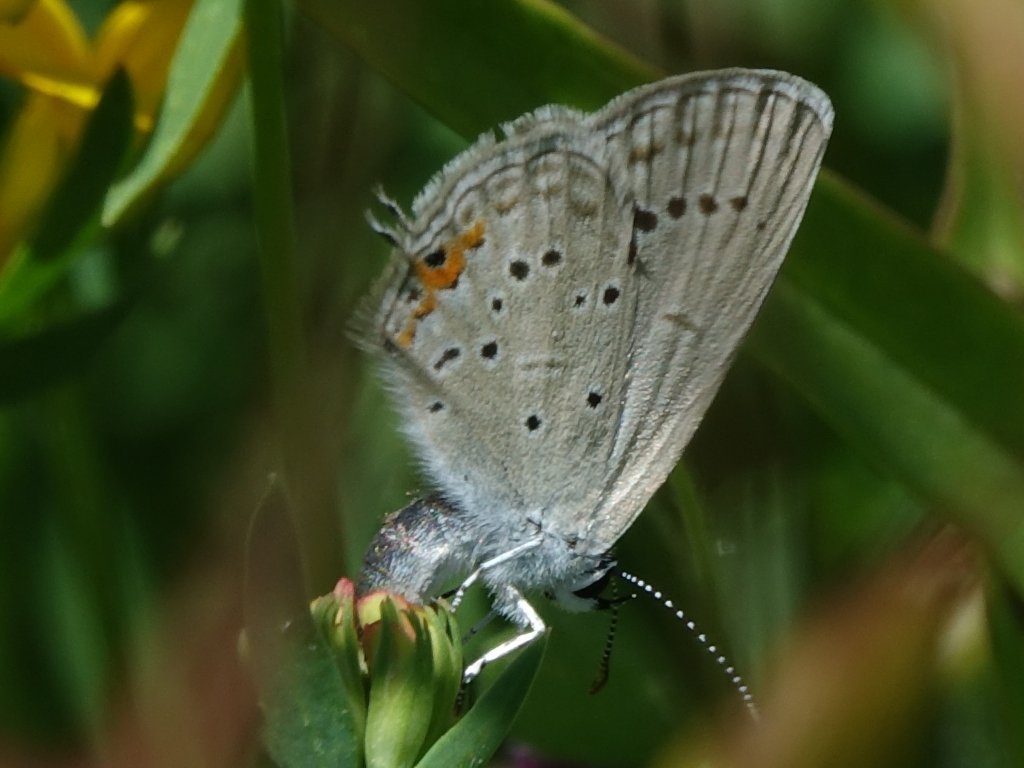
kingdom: Animalia
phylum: Arthropoda
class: Insecta
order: Lepidoptera
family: Lycaenidae
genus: Elkalyce
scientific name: Elkalyce comyntas
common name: Eastern Tailed-Blue
